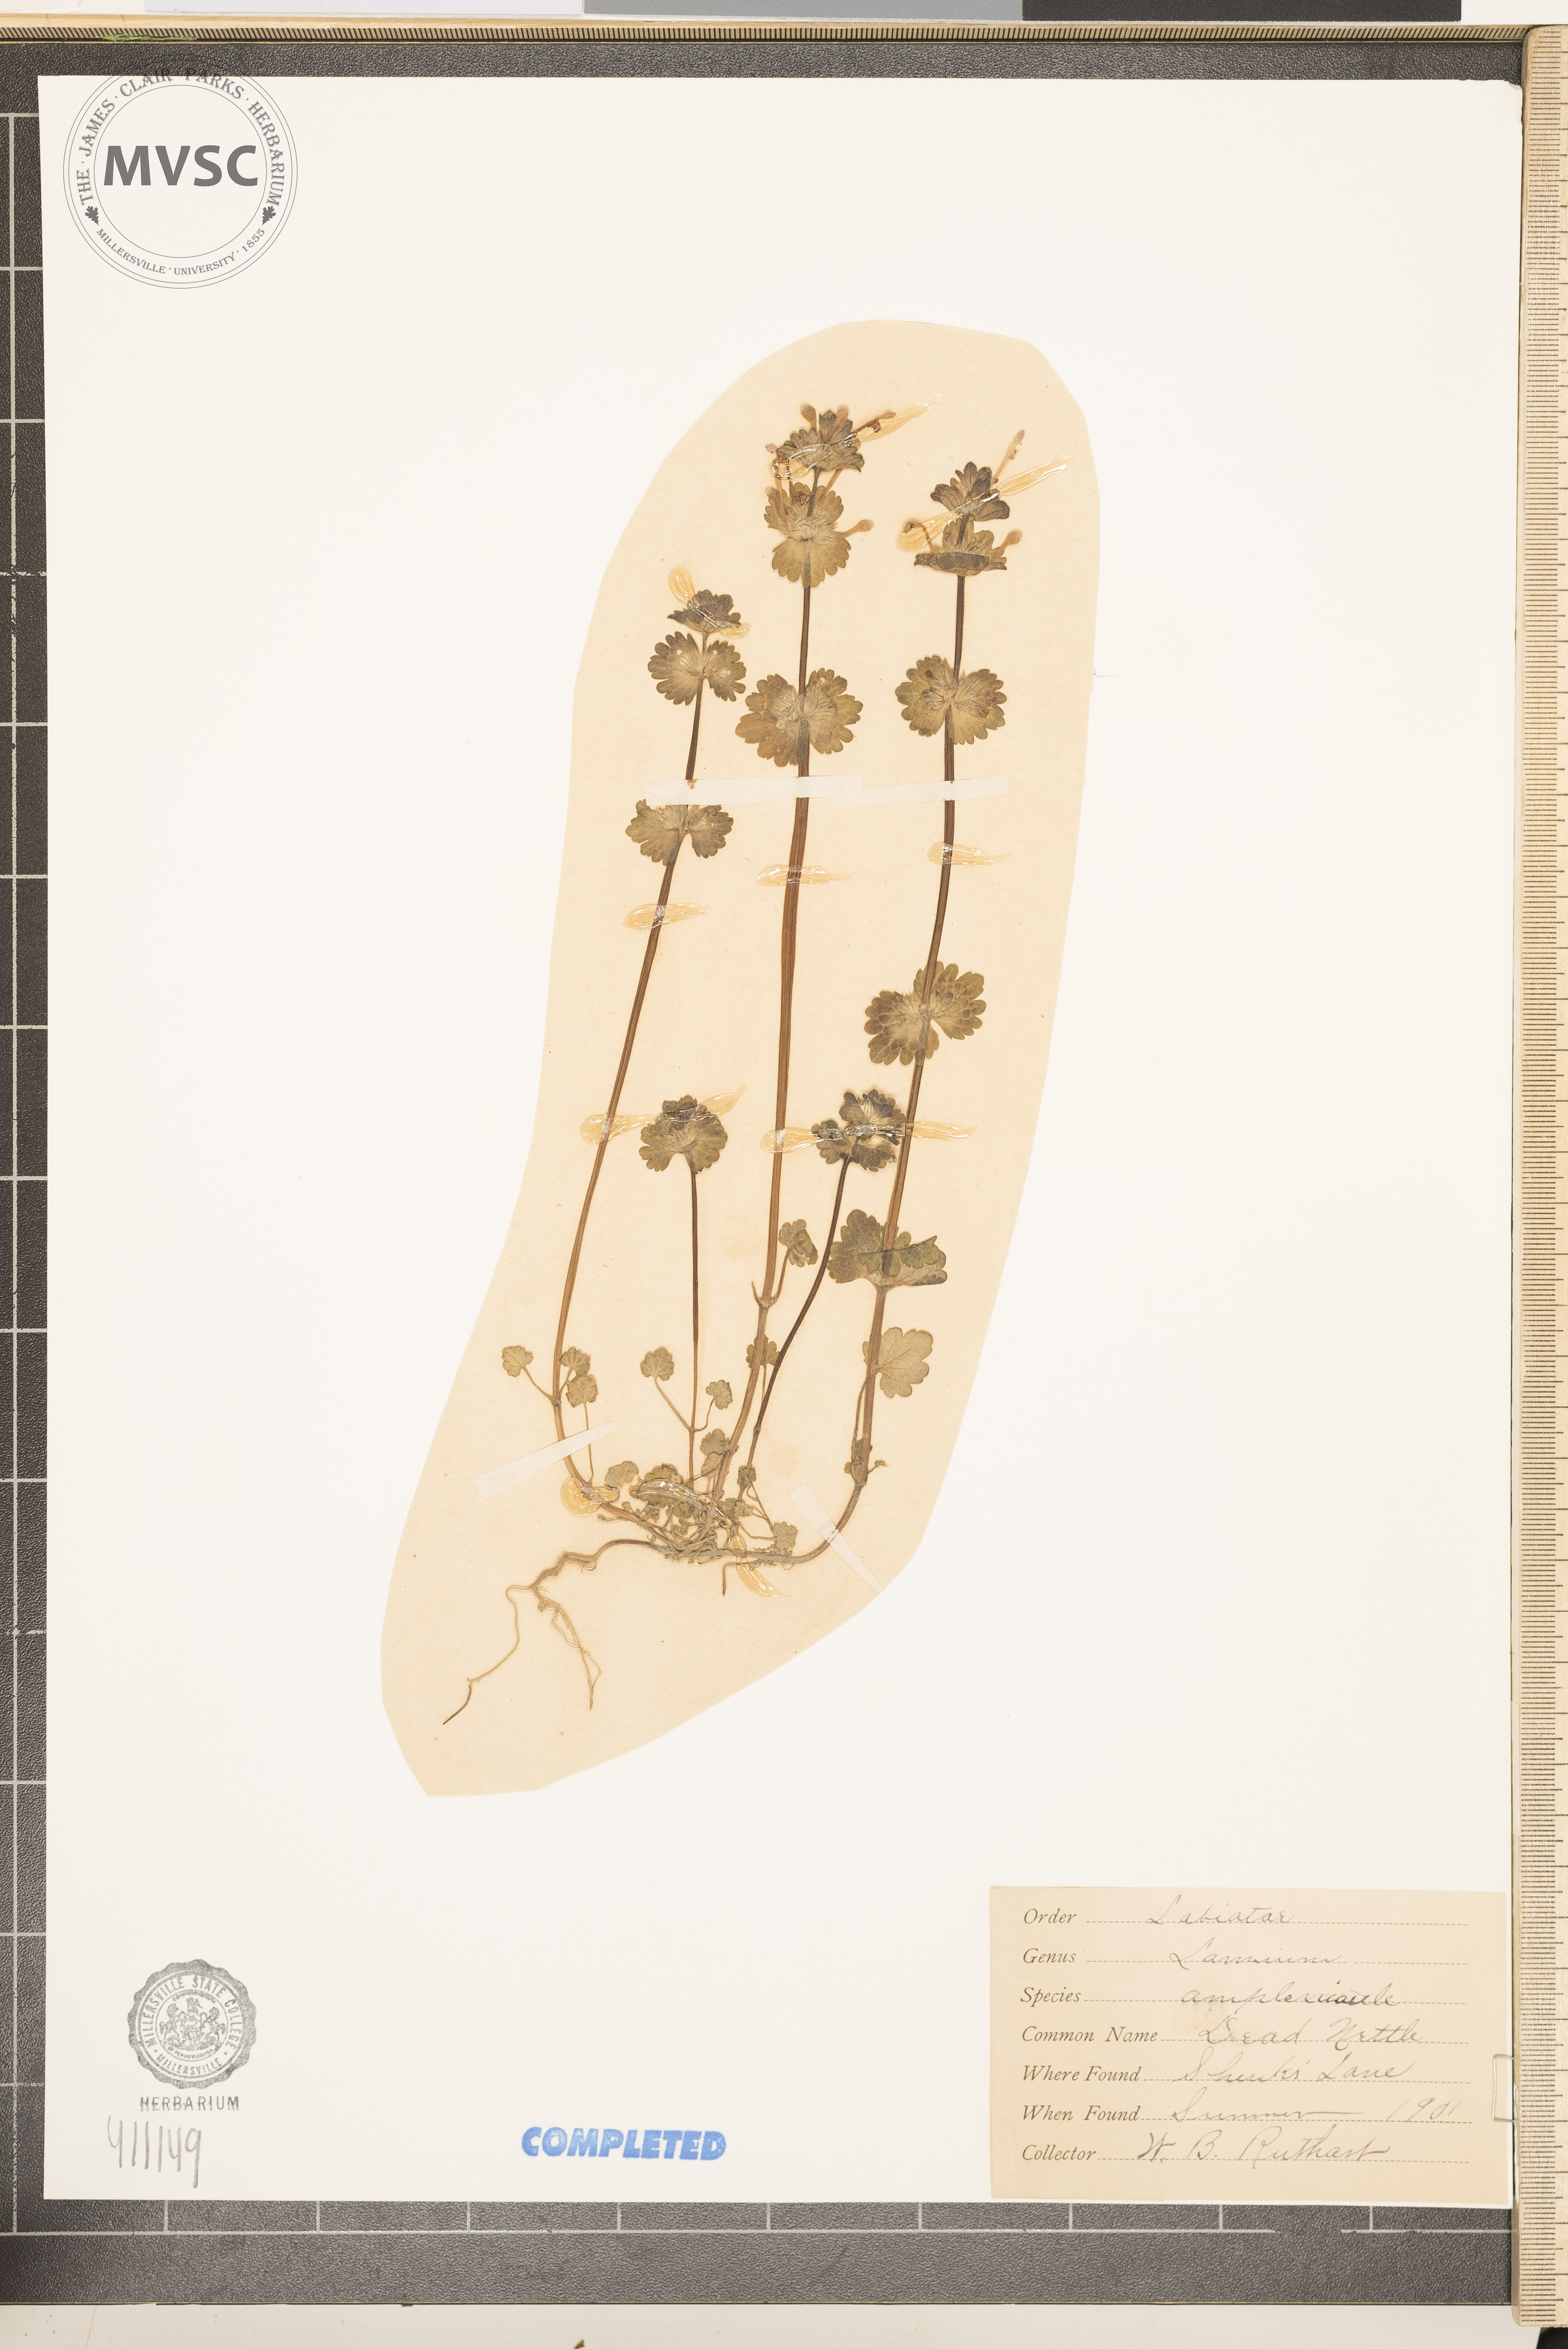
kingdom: Plantae
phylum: Tracheophyta
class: Magnoliopsida
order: Lamiales
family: Lamiaceae
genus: Lamium
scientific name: Lamium amplexicaule
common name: henbit
